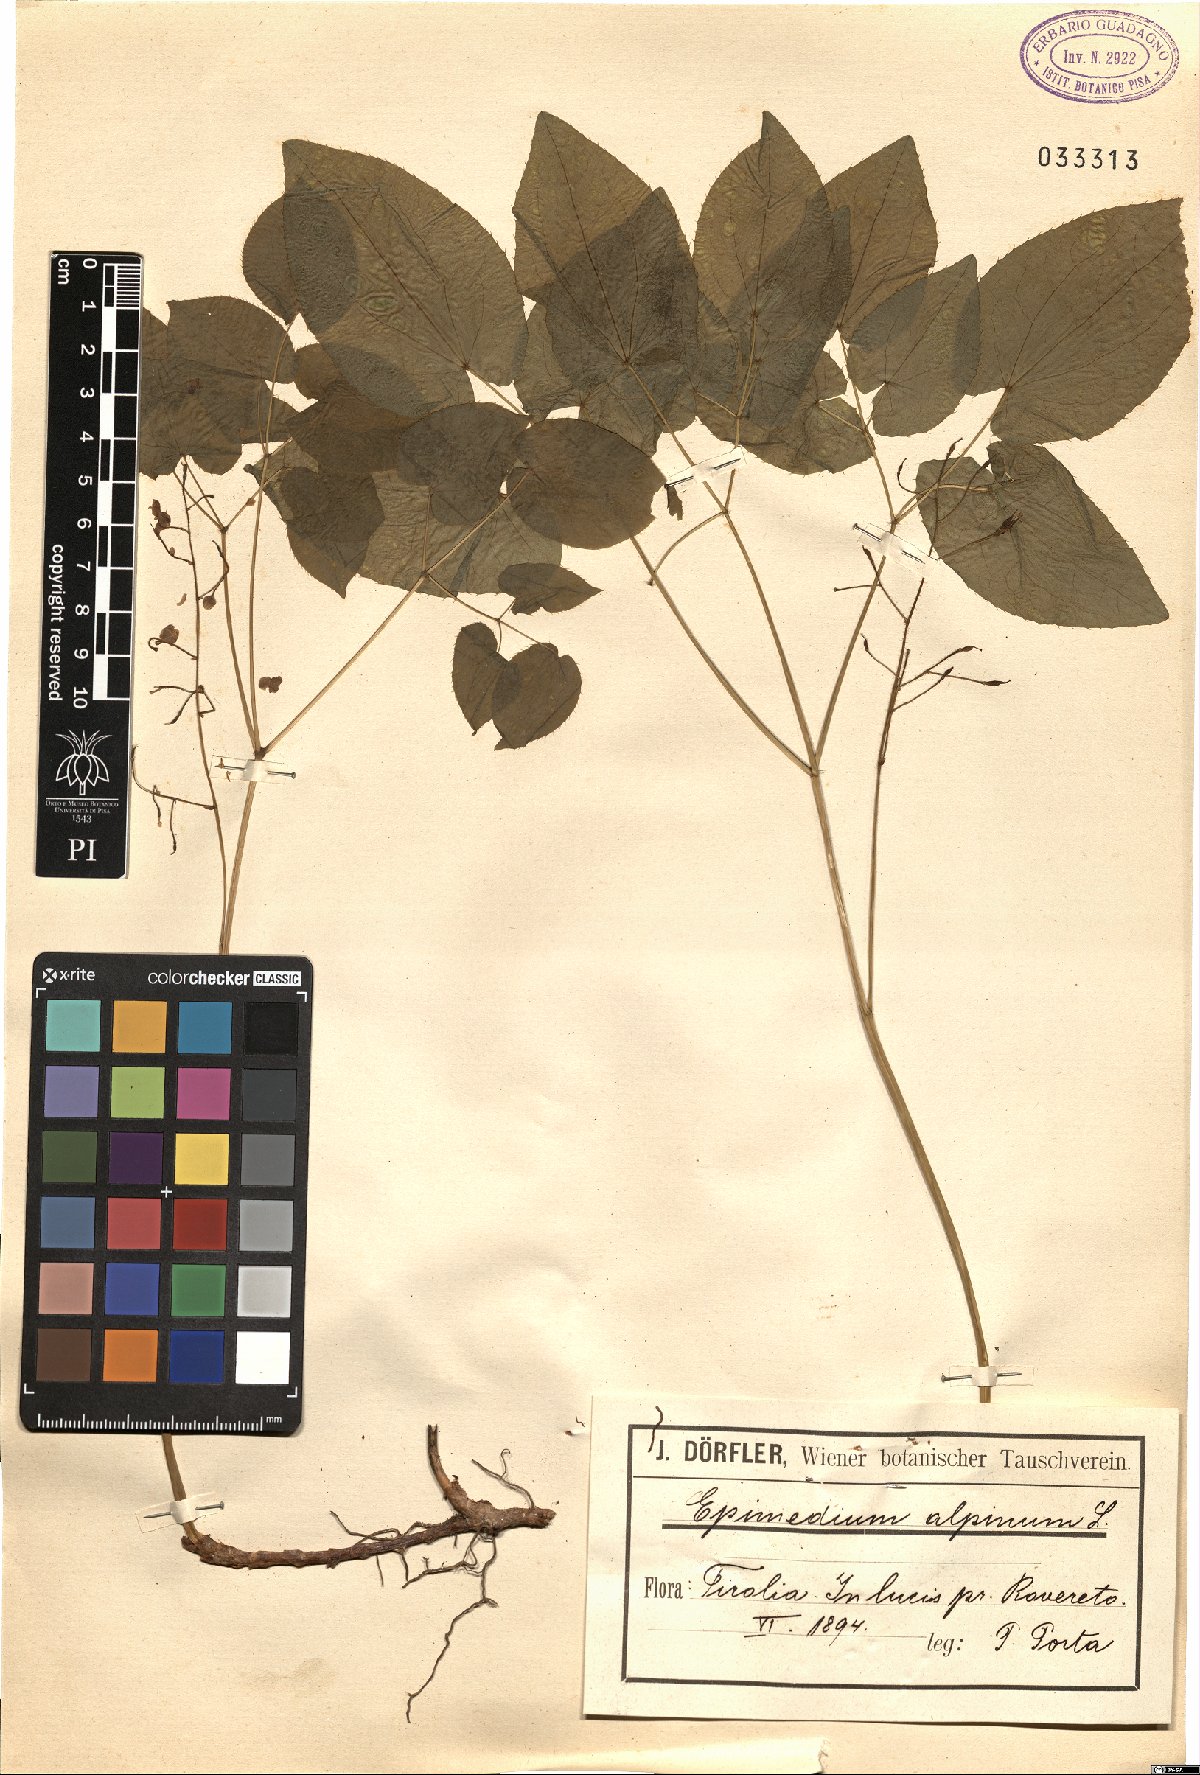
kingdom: Plantae
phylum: Tracheophyta
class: Magnoliopsida
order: Ranunculales
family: Berberidaceae
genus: Epimedium
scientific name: Epimedium alpinum
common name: Barrenwort
